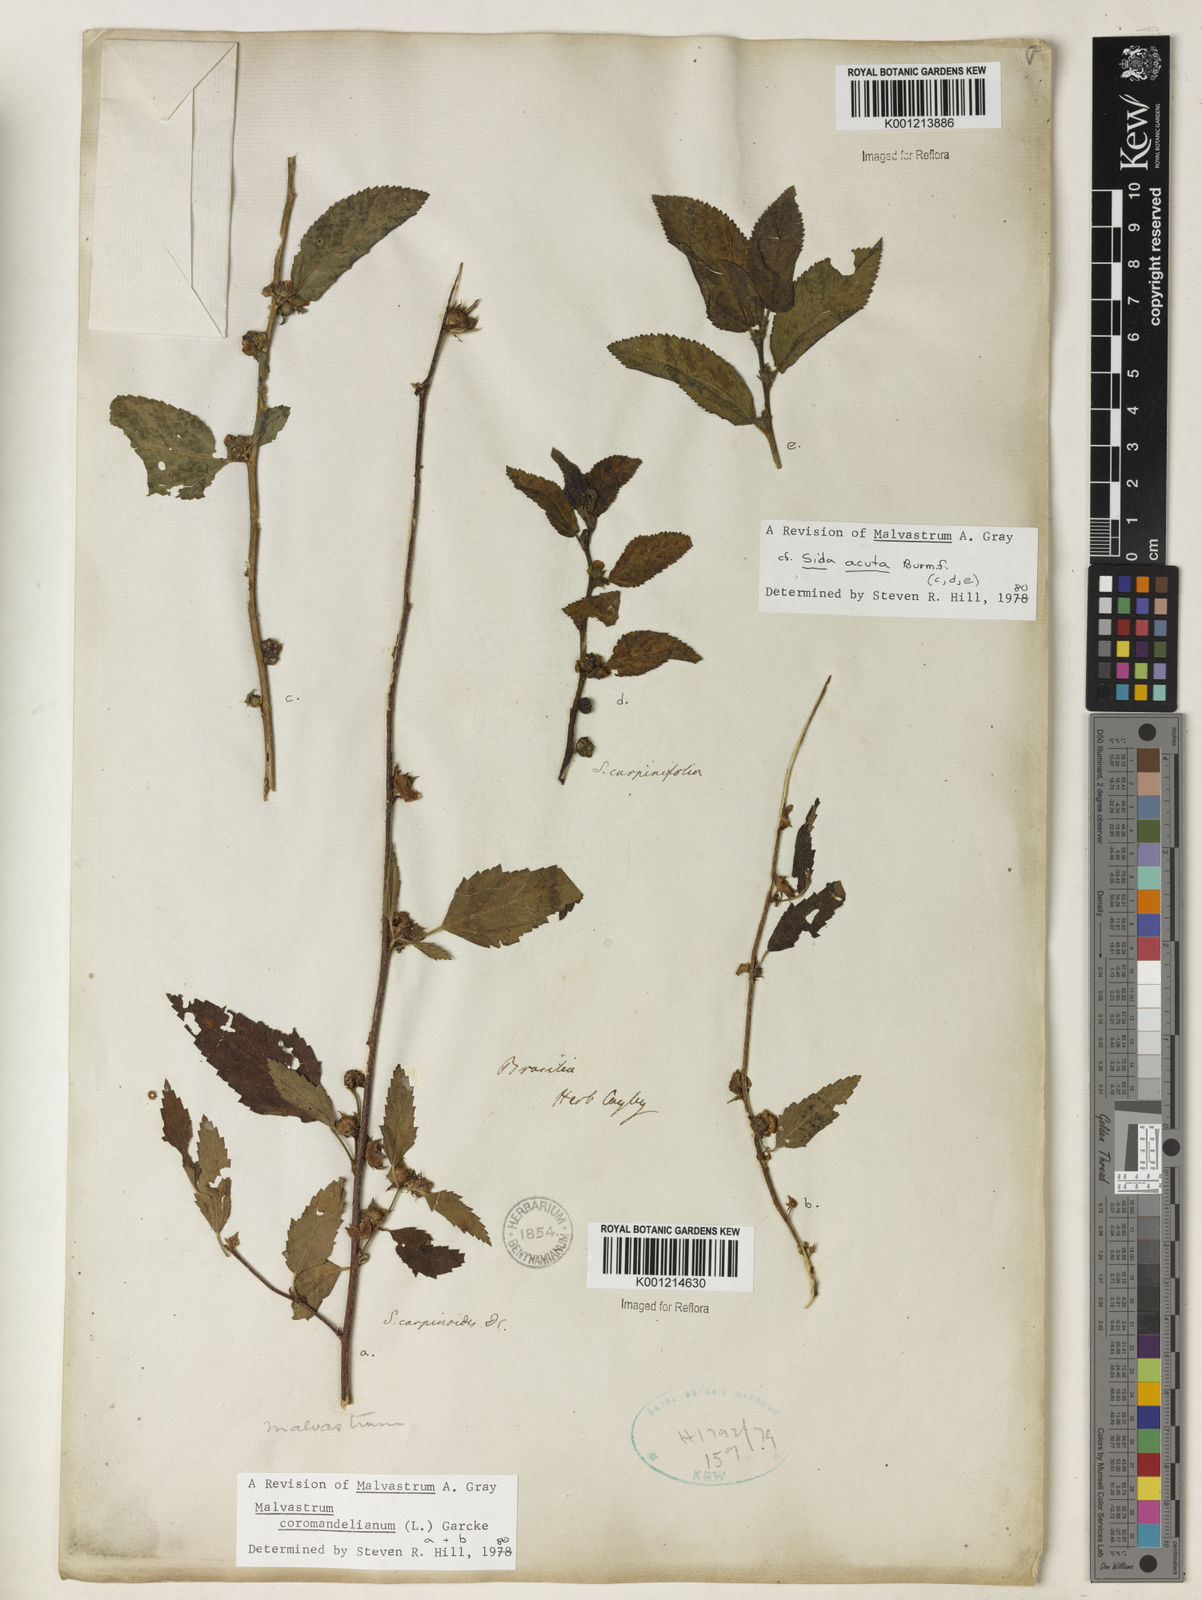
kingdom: Plantae
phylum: Tracheophyta
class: Magnoliopsida
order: Malvales
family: Malvaceae
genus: Malvastrum
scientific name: Malvastrum coromandelianum
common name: Threelobe false mallow
